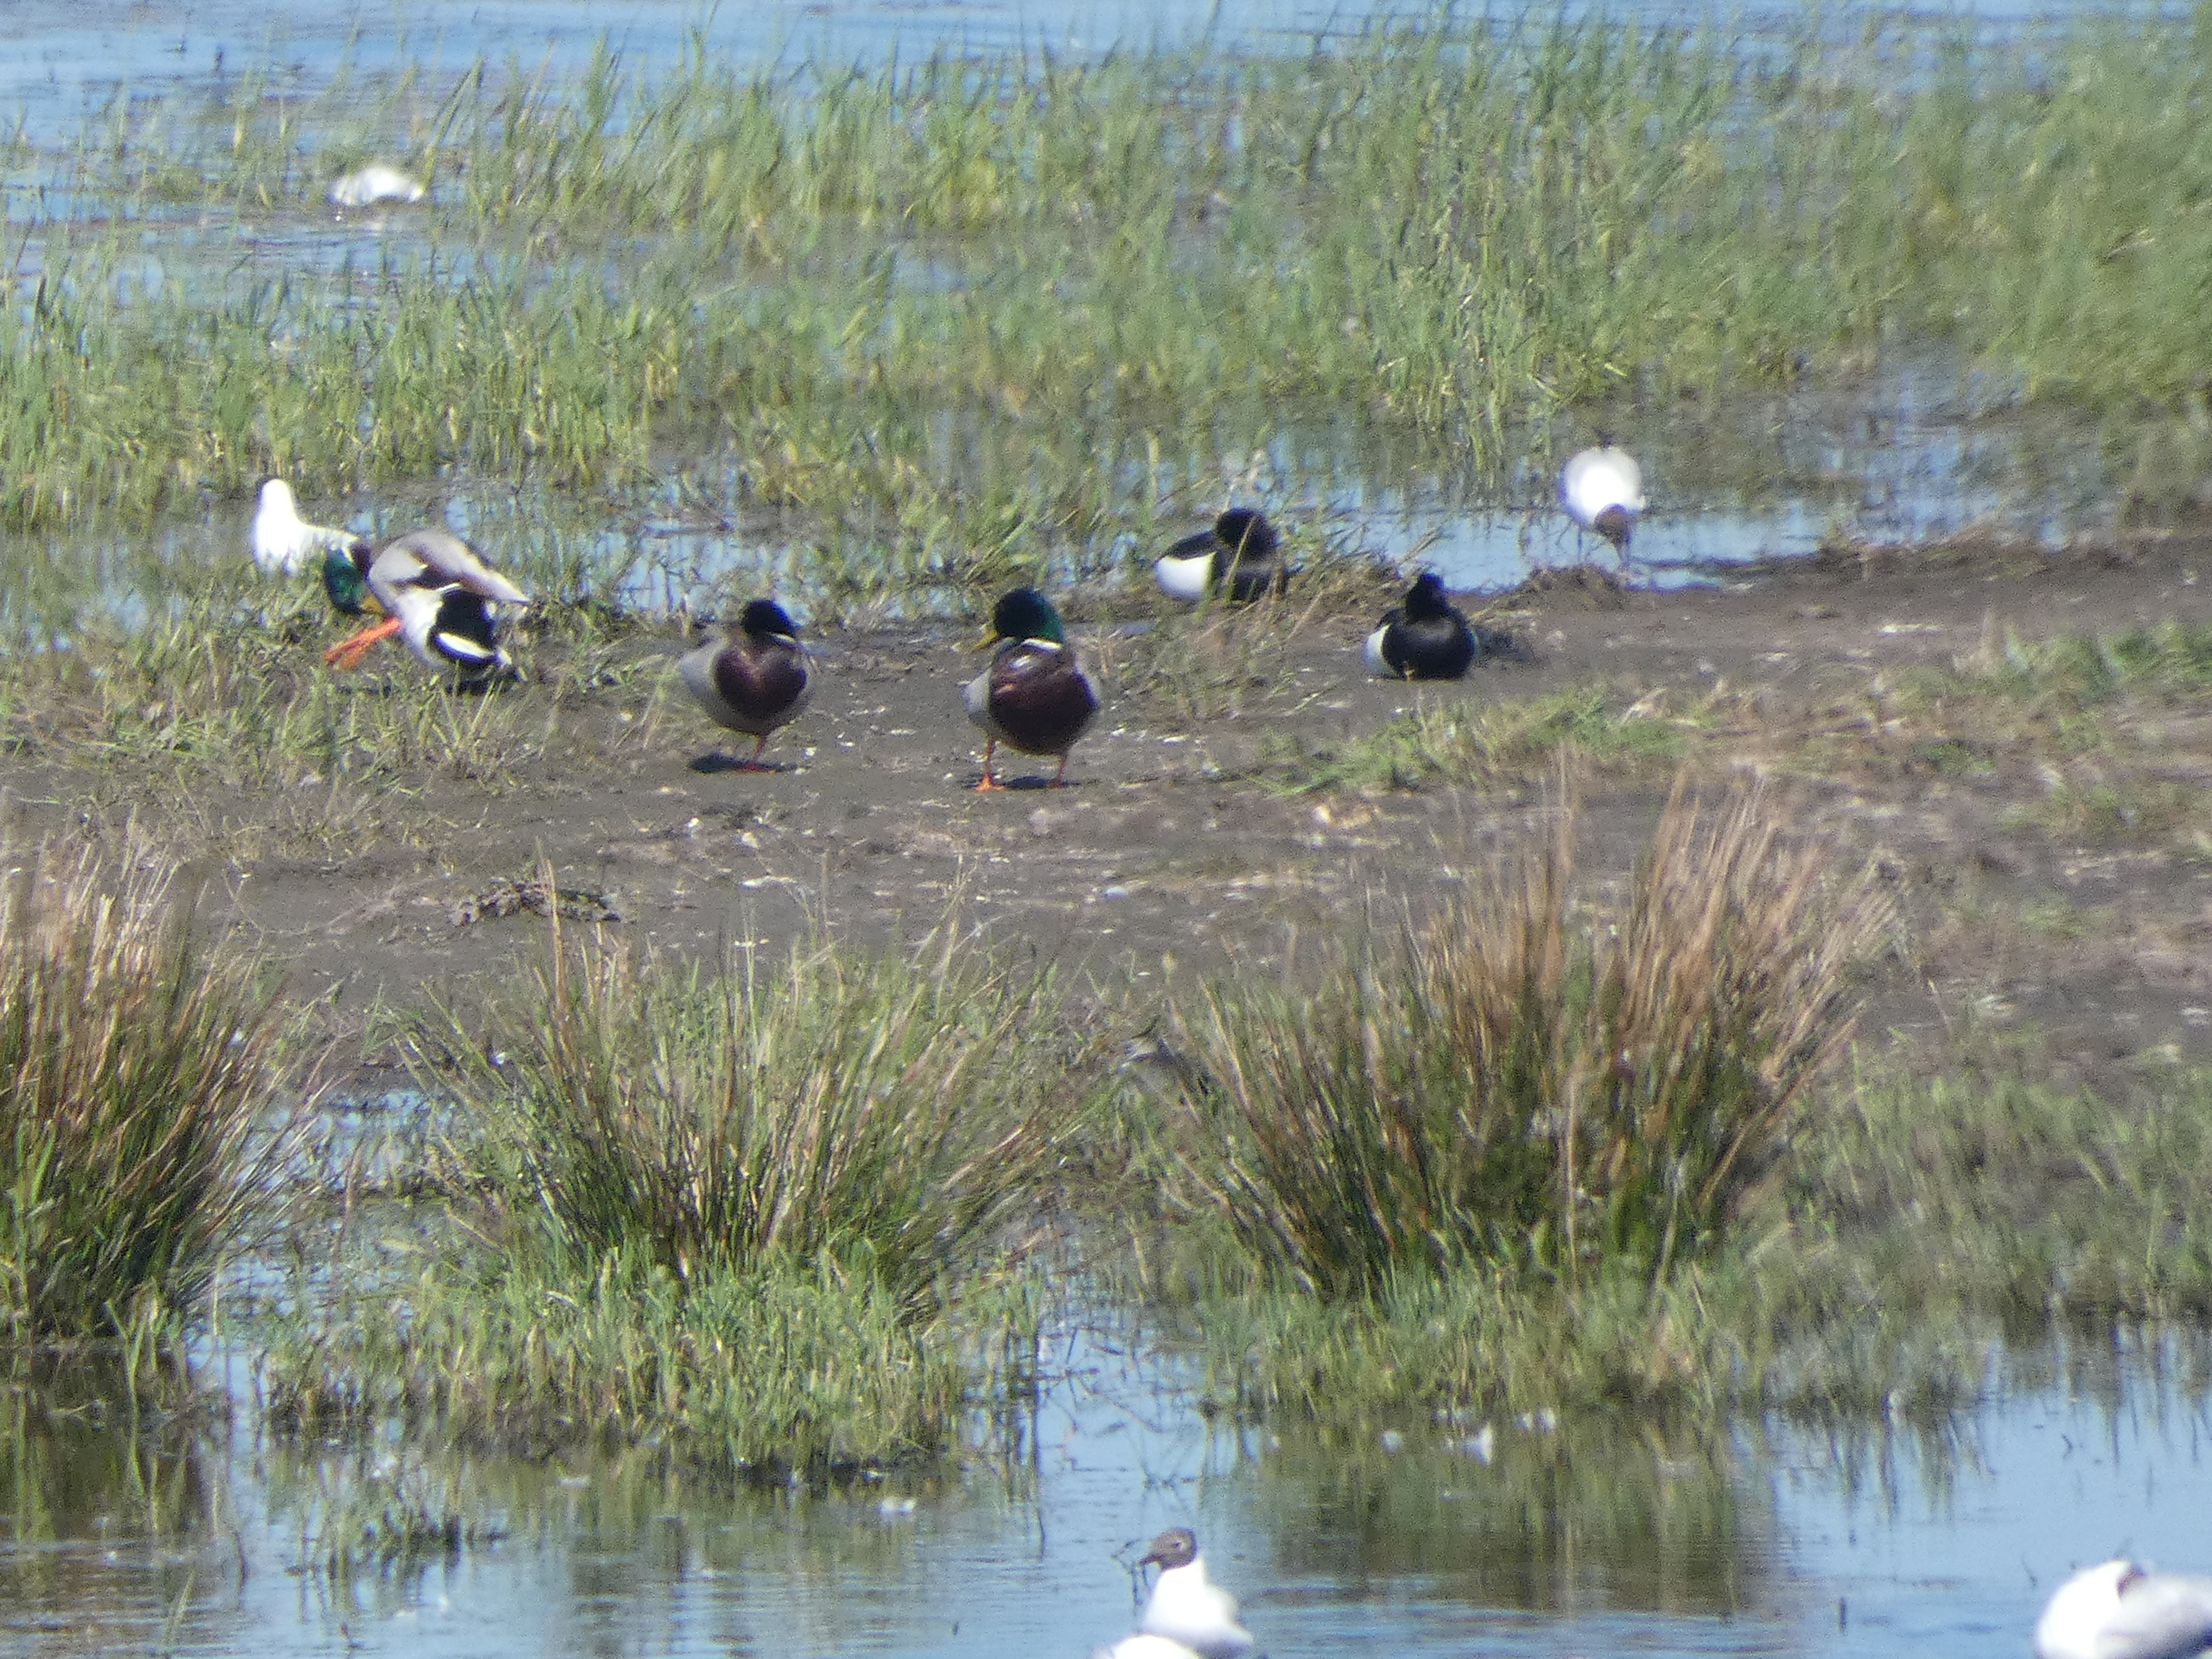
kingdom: Animalia
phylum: Chordata
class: Aves
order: Anseriformes
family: Anatidae
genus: Anas
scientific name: Anas platyrhynchos
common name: Gråand
